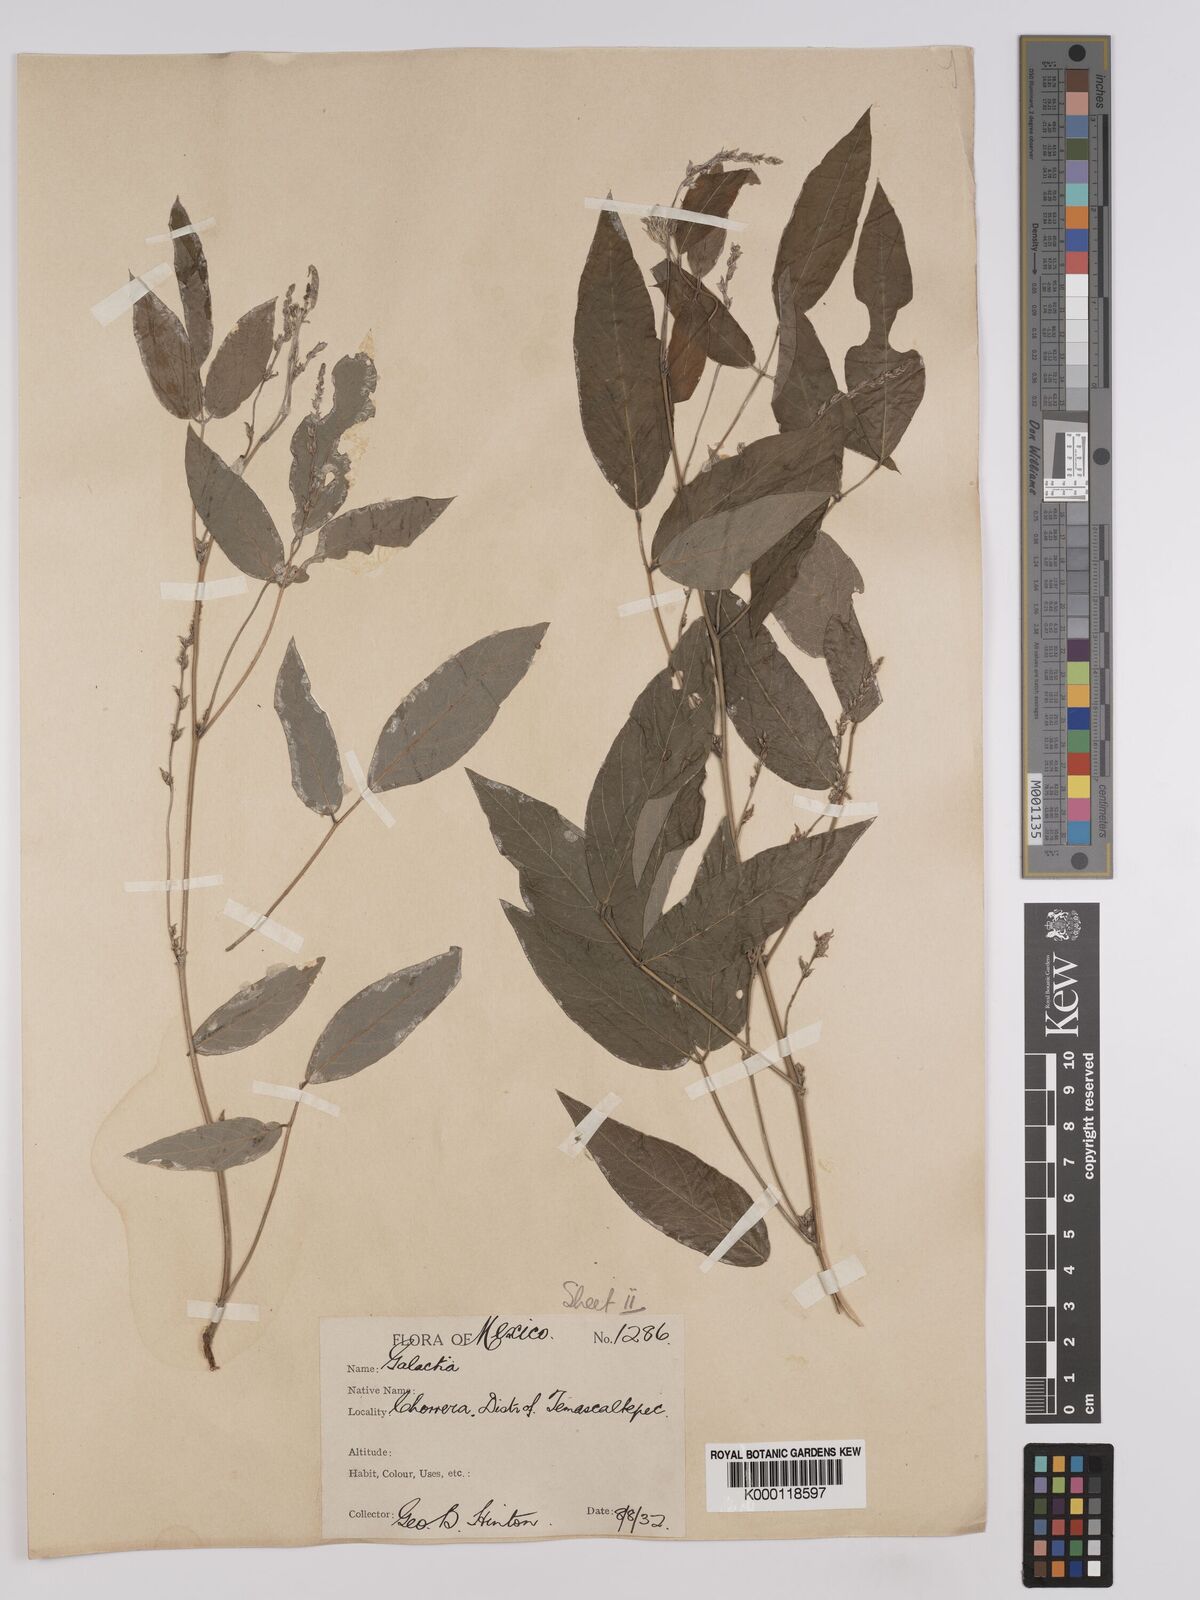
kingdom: Plantae
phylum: Tracheophyta
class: Magnoliopsida
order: Fabales
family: Fabaceae
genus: Galactia
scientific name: Galactia incana
